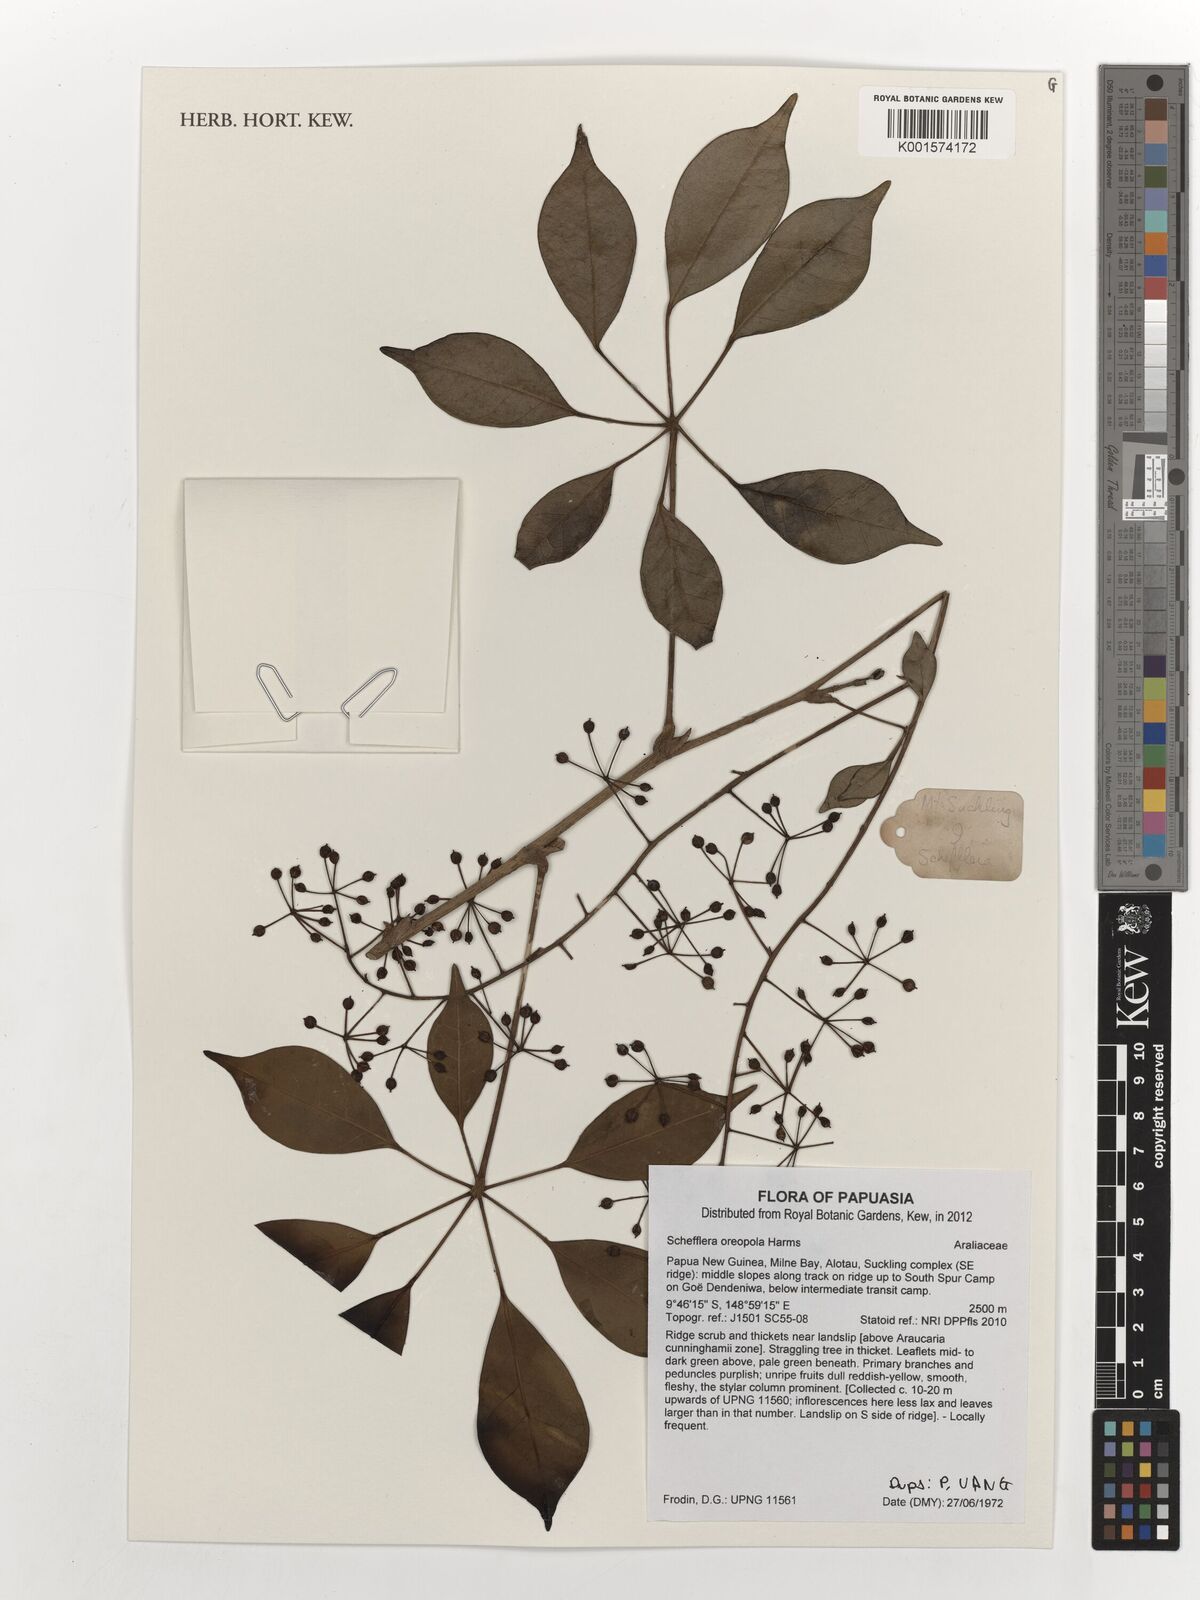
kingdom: Plantae
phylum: Tracheophyta
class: Magnoliopsida
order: Apiales
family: Araliaceae
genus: Heptapleurum
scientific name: Heptapleurum oreopolum
